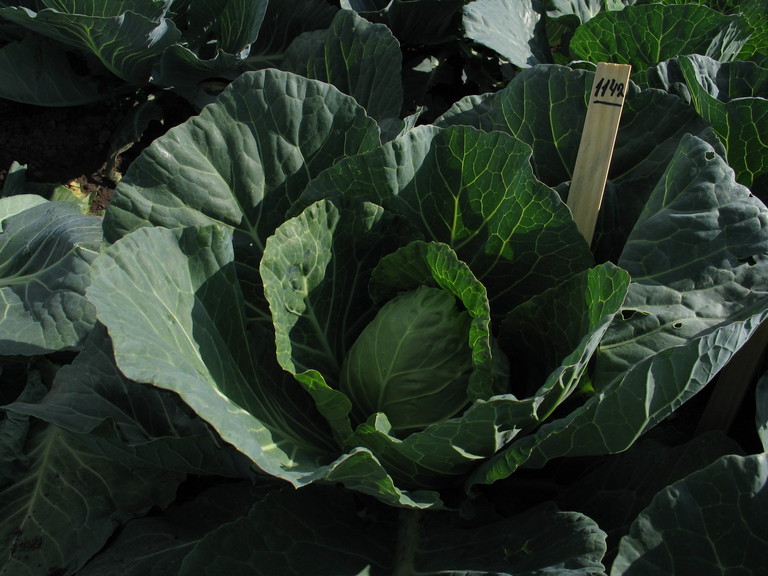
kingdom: Plantae
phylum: Tracheophyta
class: Magnoliopsida
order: Brassicales
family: Brassicaceae
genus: Brassica
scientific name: Brassica oleracea
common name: Cabbage
